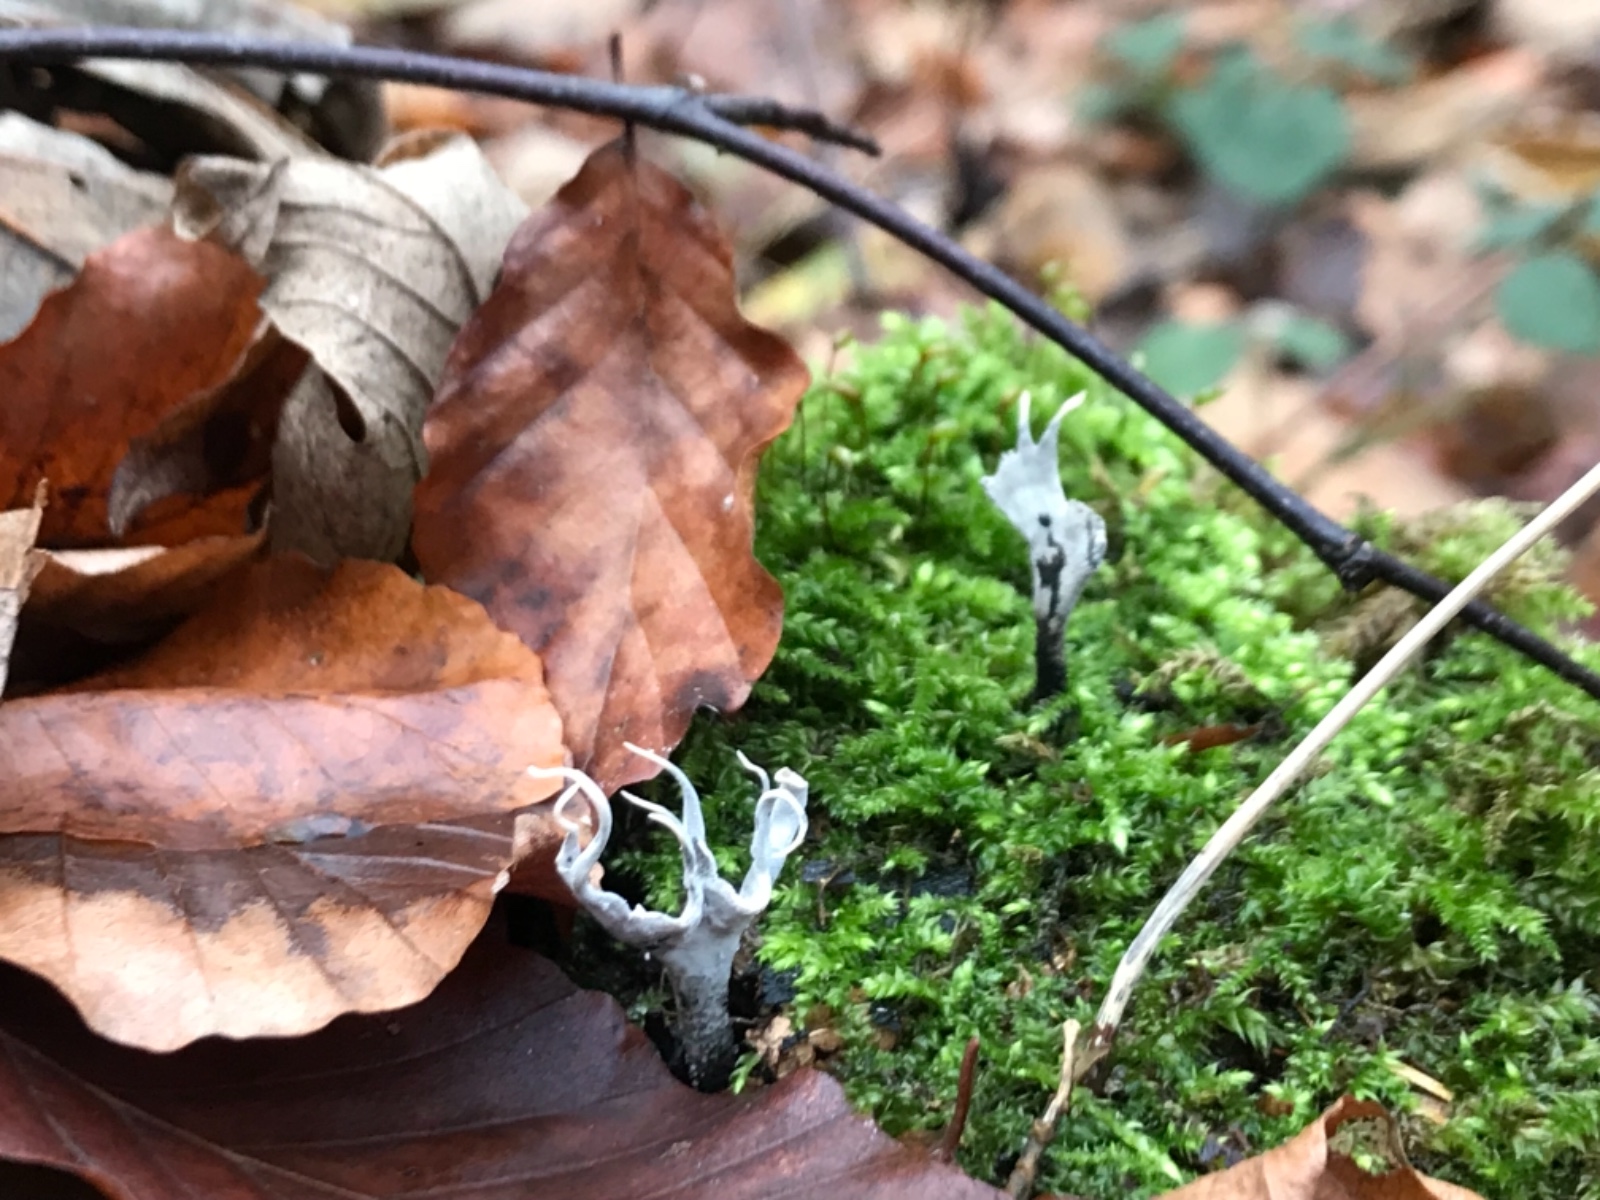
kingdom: Fungi
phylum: Ascomycota
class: Sordariomycetes
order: Xylariales
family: Xylariaceae
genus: Xylaria
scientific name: Xylaria hypoxylon
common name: grenet stødsvamp
